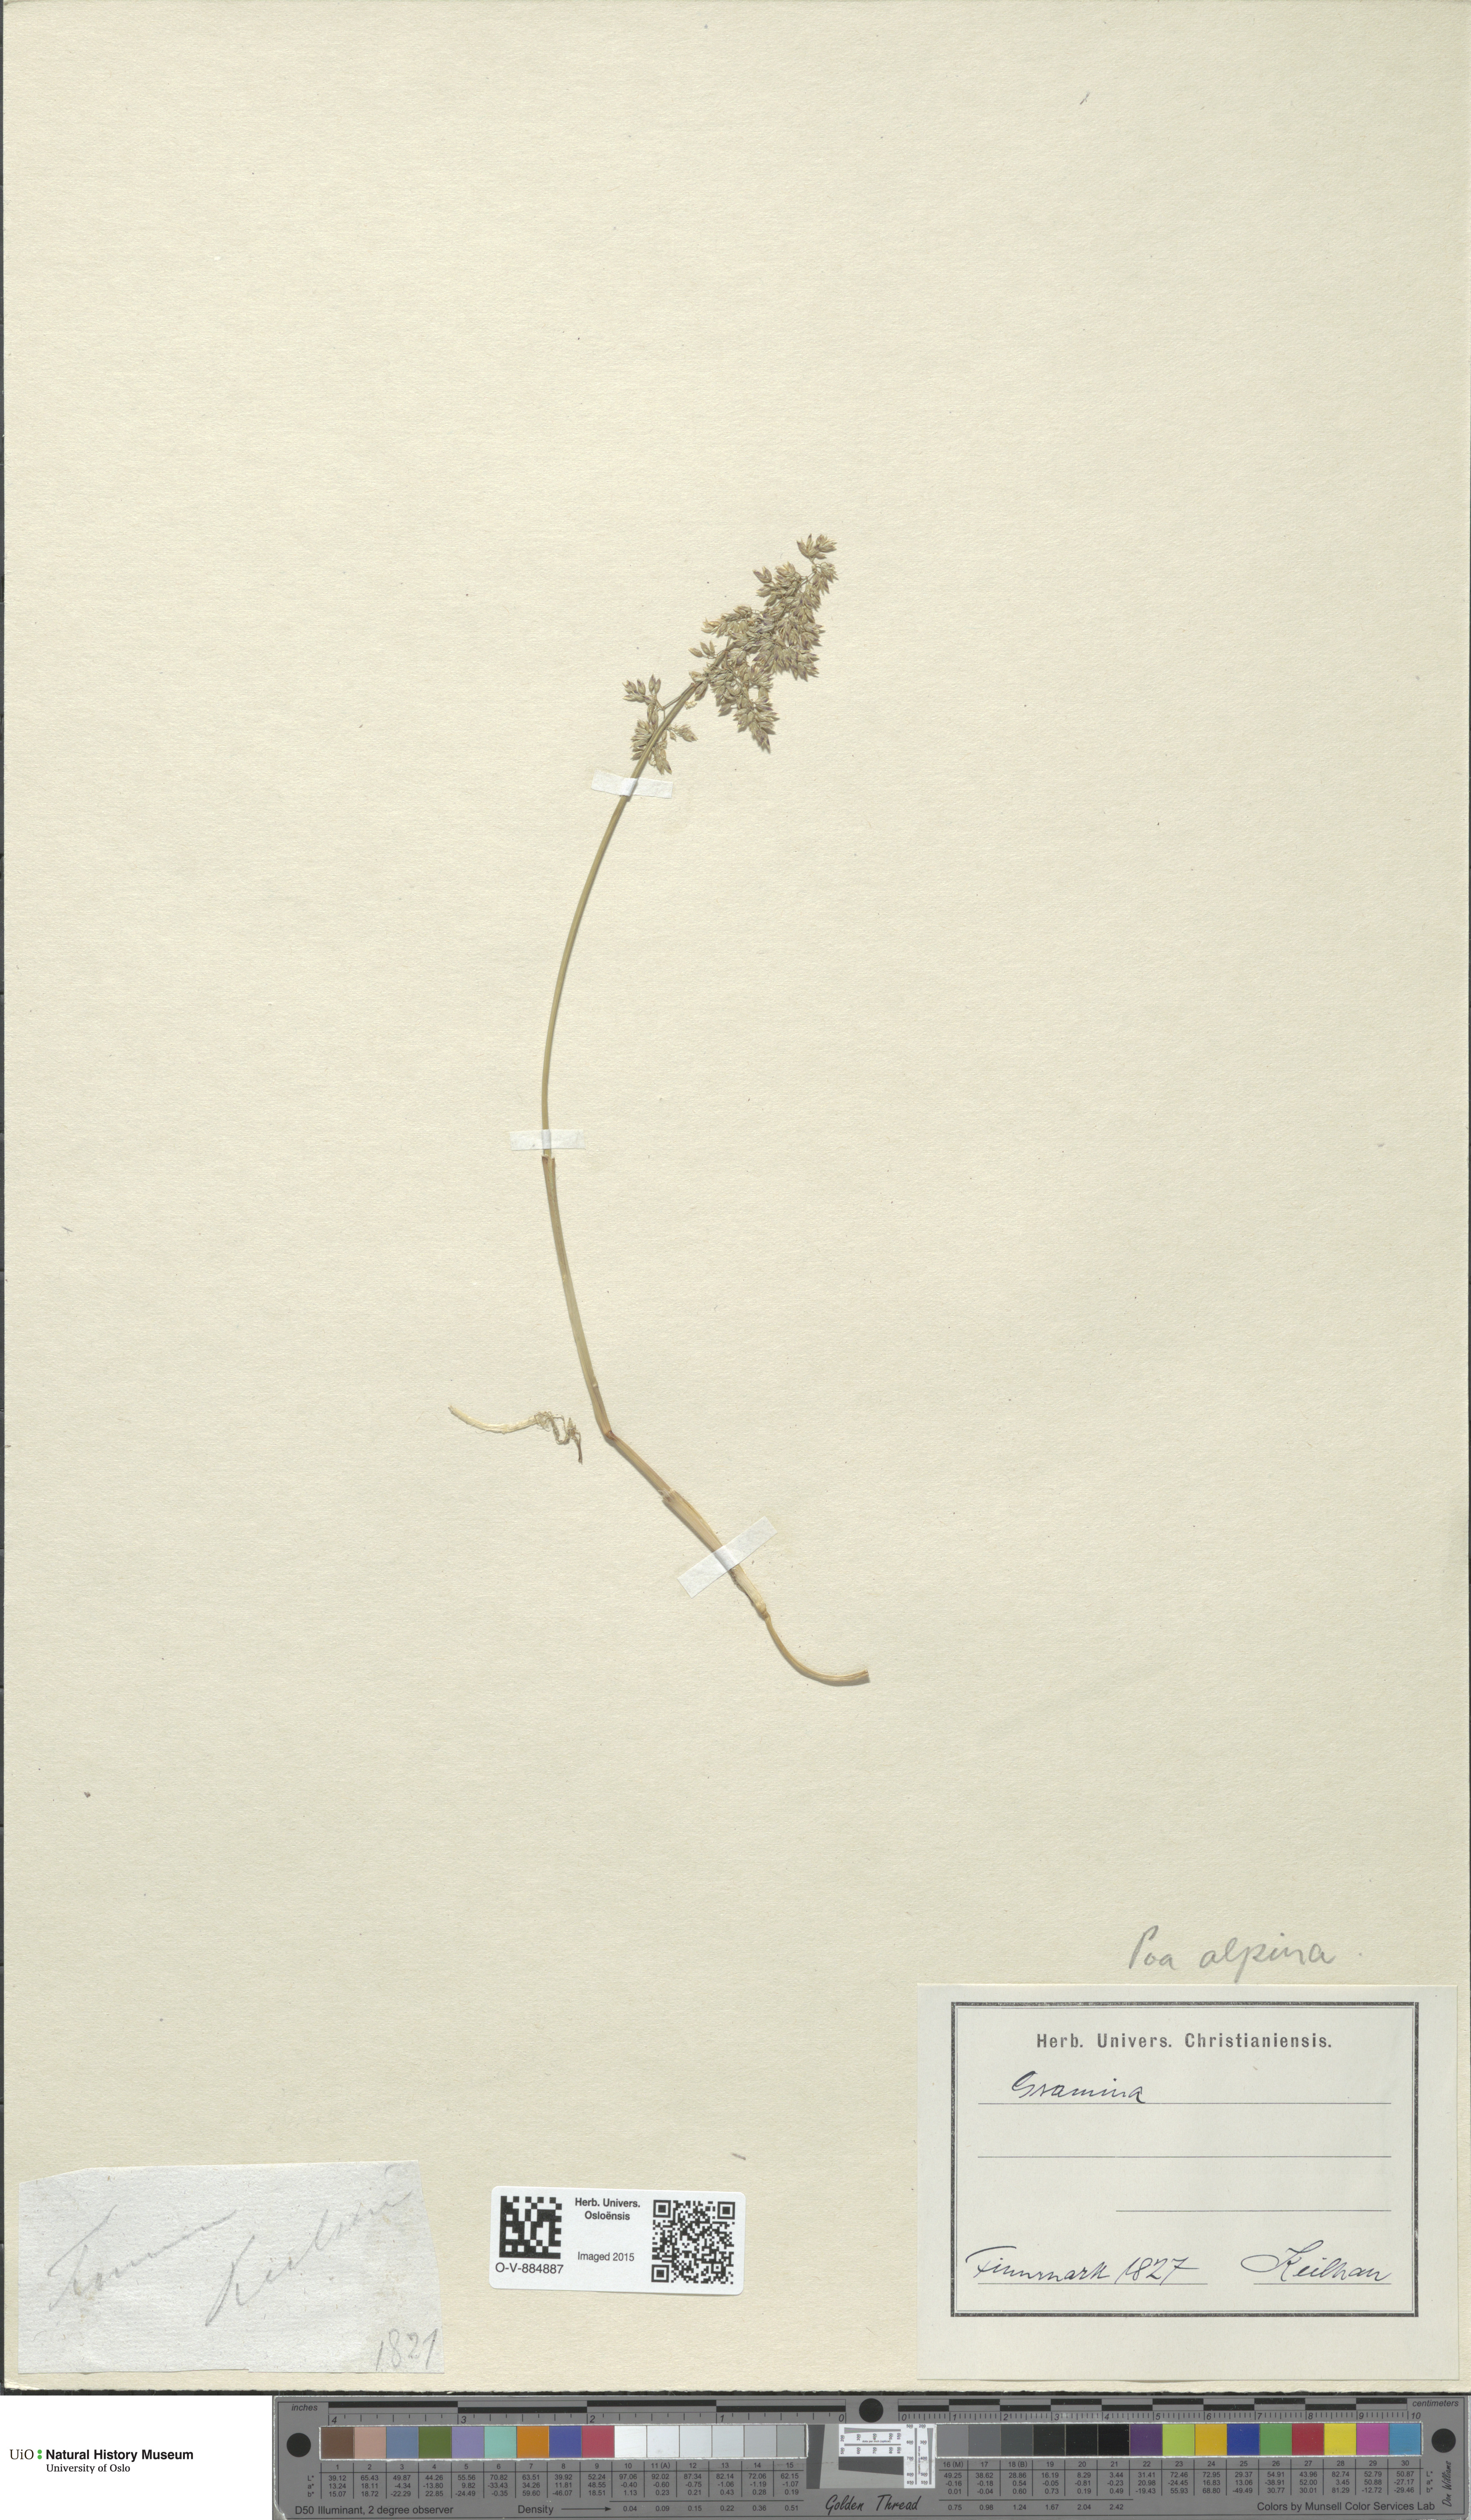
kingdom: Plantae
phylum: Tracheophyta
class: Liliopsida
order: Poales
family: Poaceae
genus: Poa
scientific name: Poa alpina
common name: Alpine bluegrass
